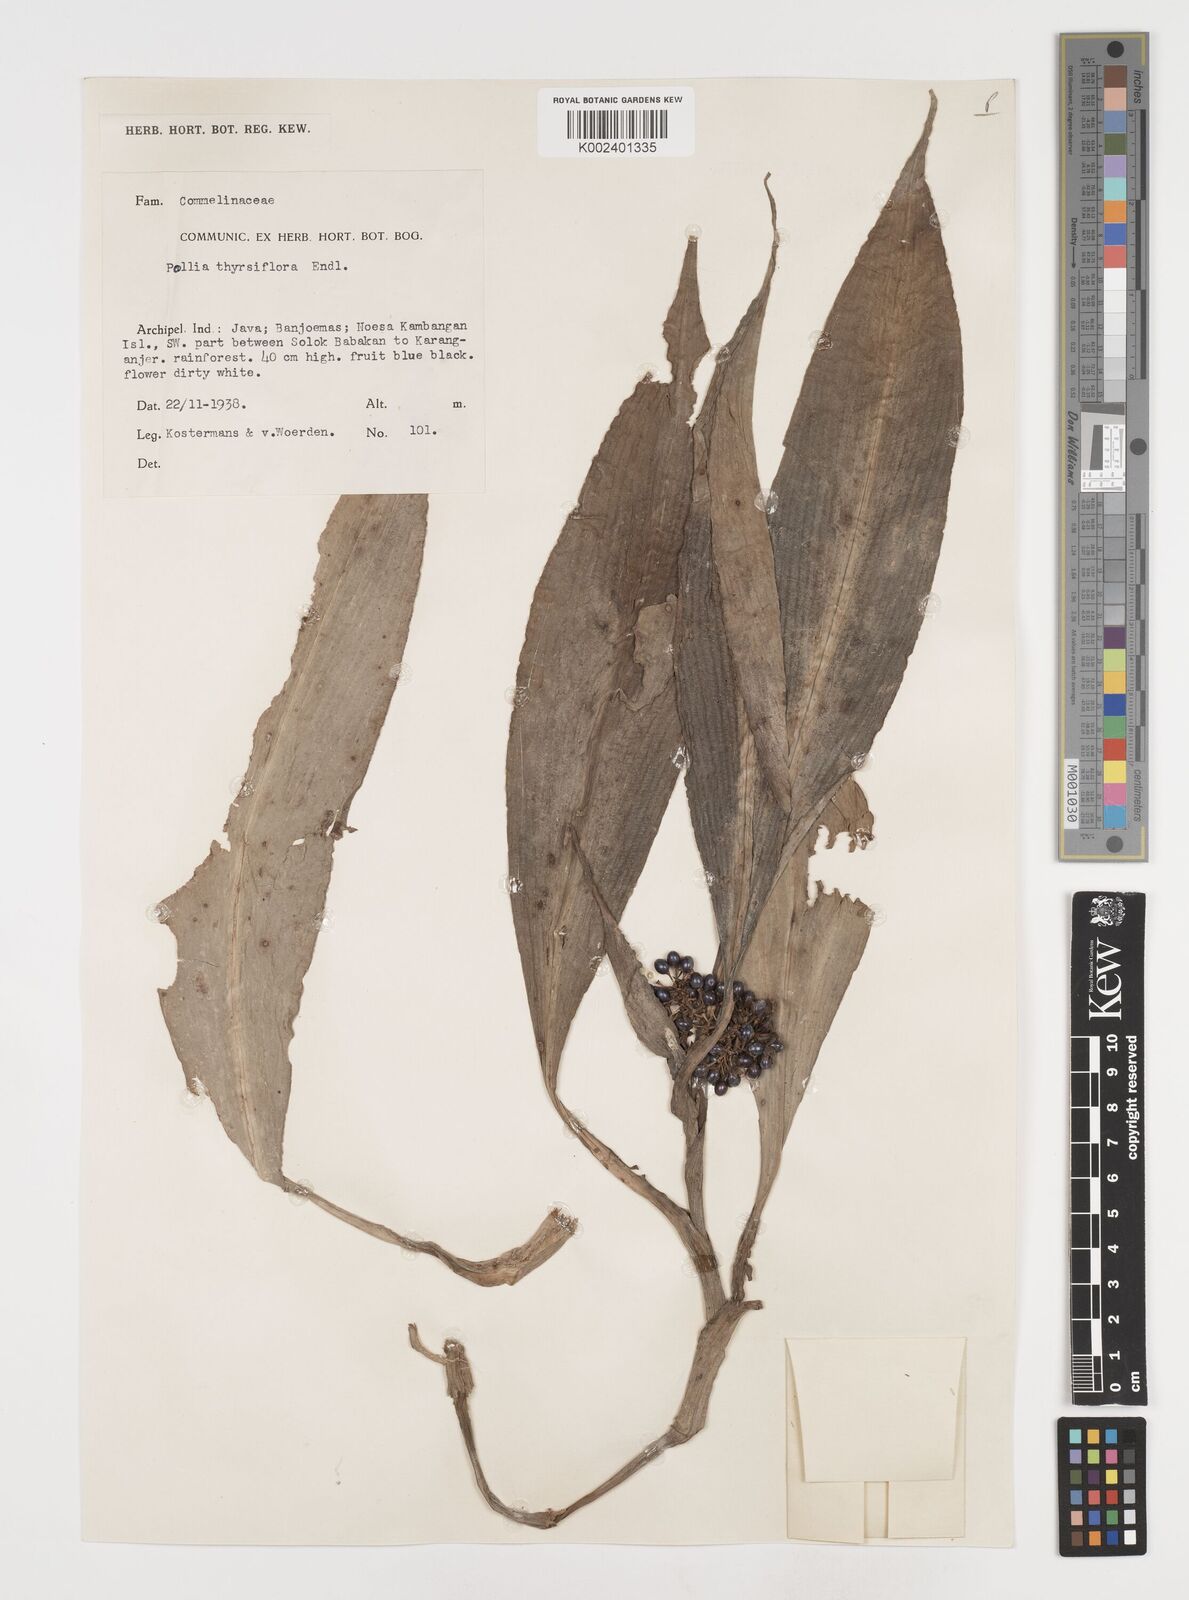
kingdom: Plantae
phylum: Tracheophyta
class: Liliopsida
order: Commelinales
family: Commelinaceae
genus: Pollia
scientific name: Pollia thyrsiflora
